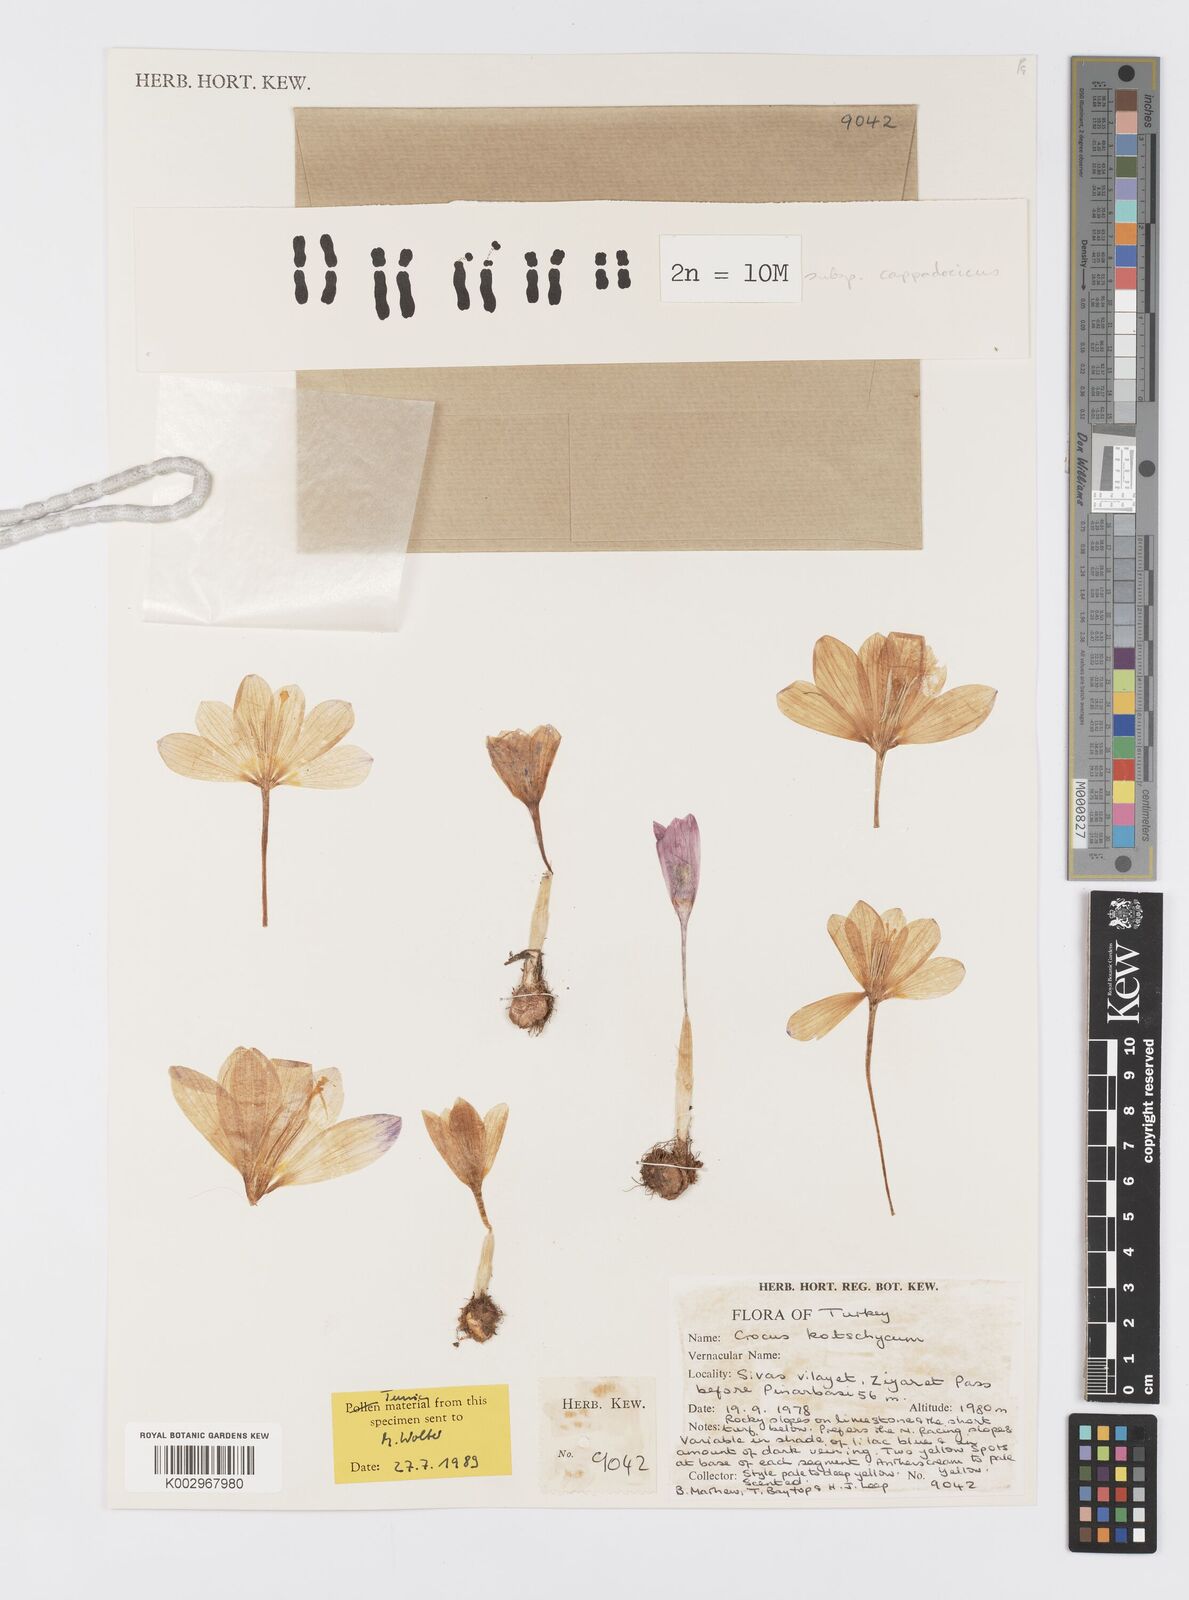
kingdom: Plantae
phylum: Tracheophyta
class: Liliopsida
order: Asparagales
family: Iridaceae
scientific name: Iridaceae
